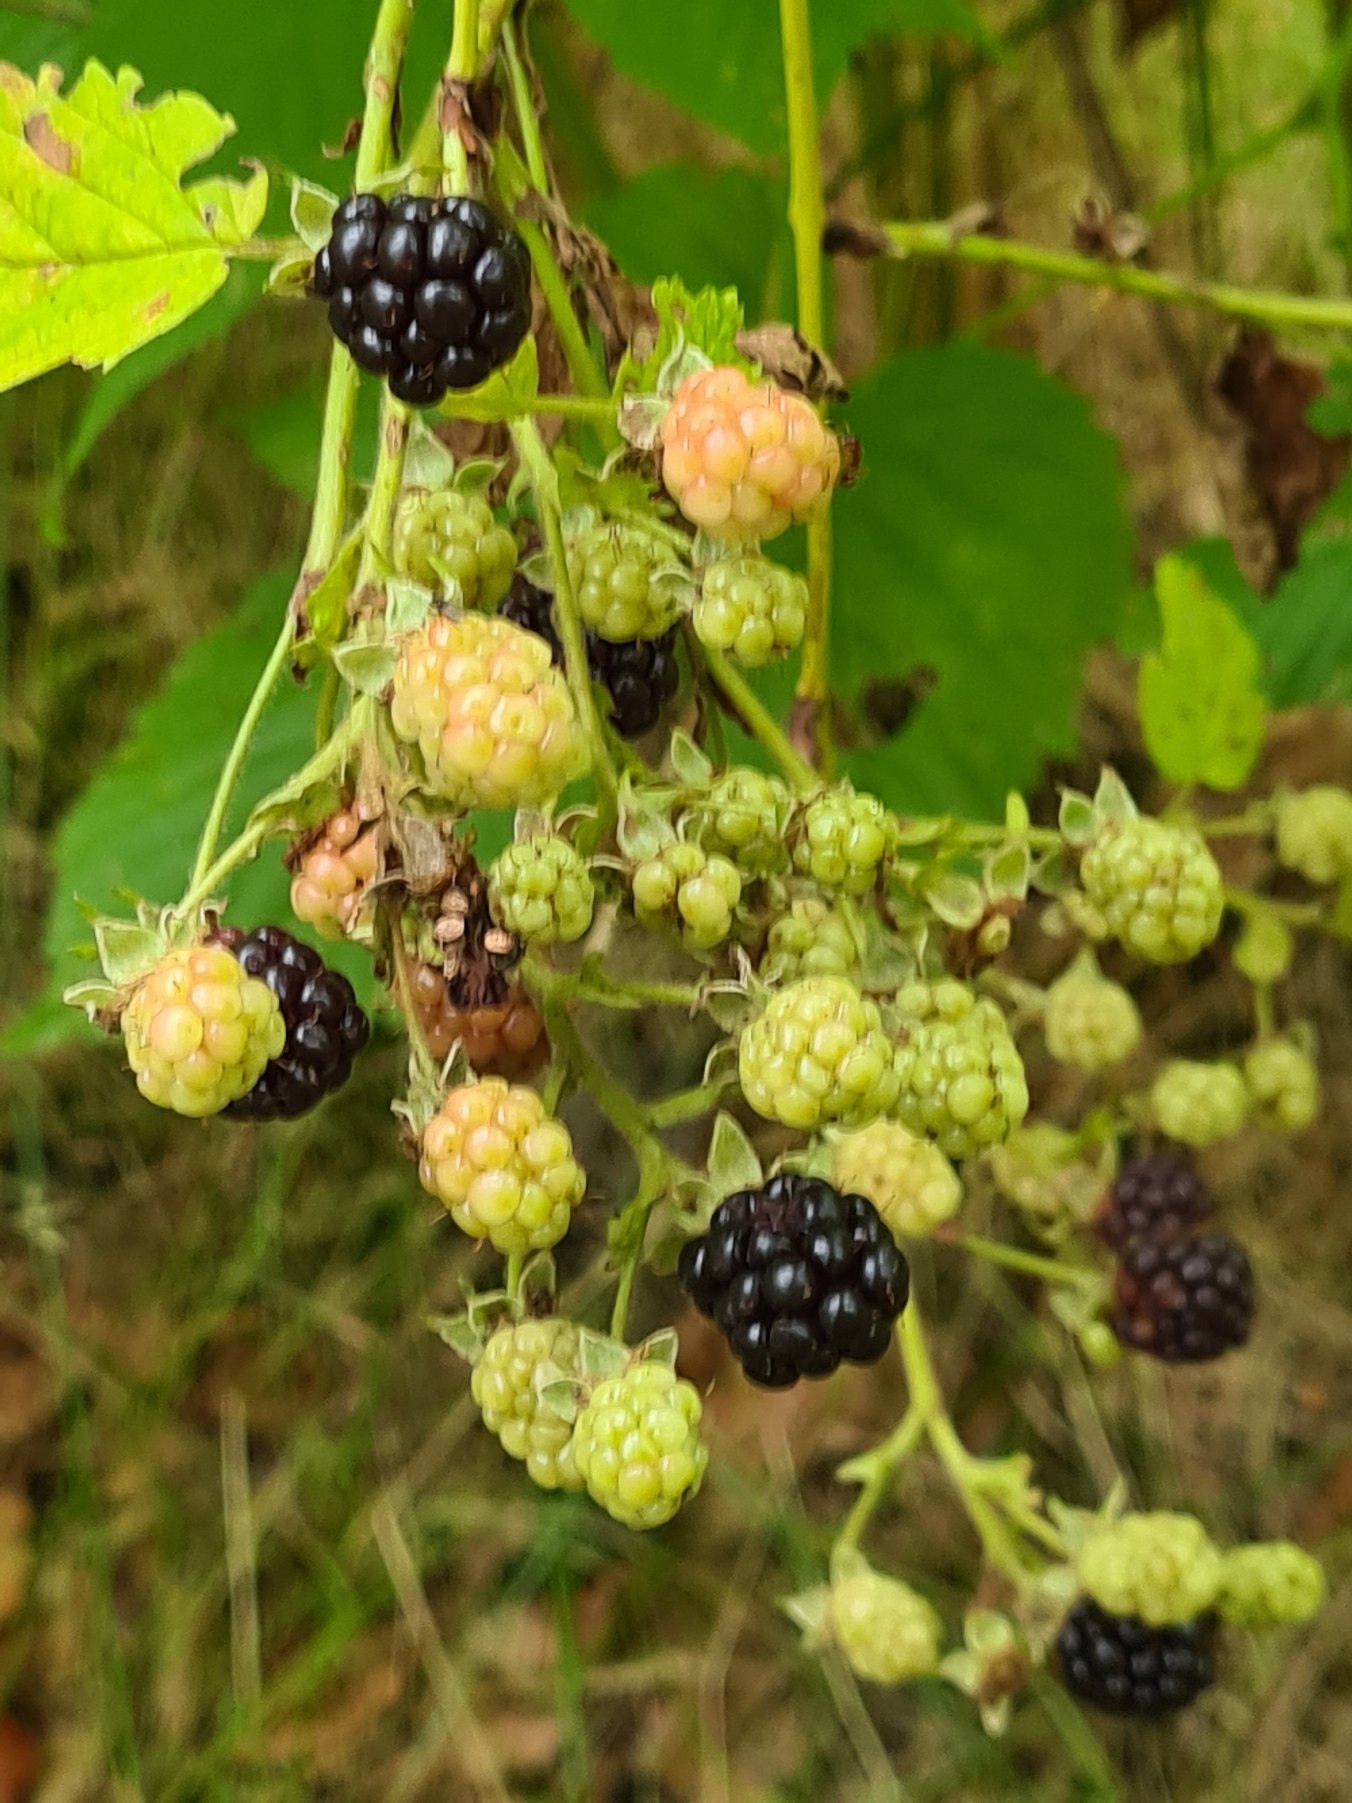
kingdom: Plantae
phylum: Tracheophyta
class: Magnoliopsida
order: Rosales
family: Rosaceae
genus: Rubus
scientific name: Rubus canadensis
